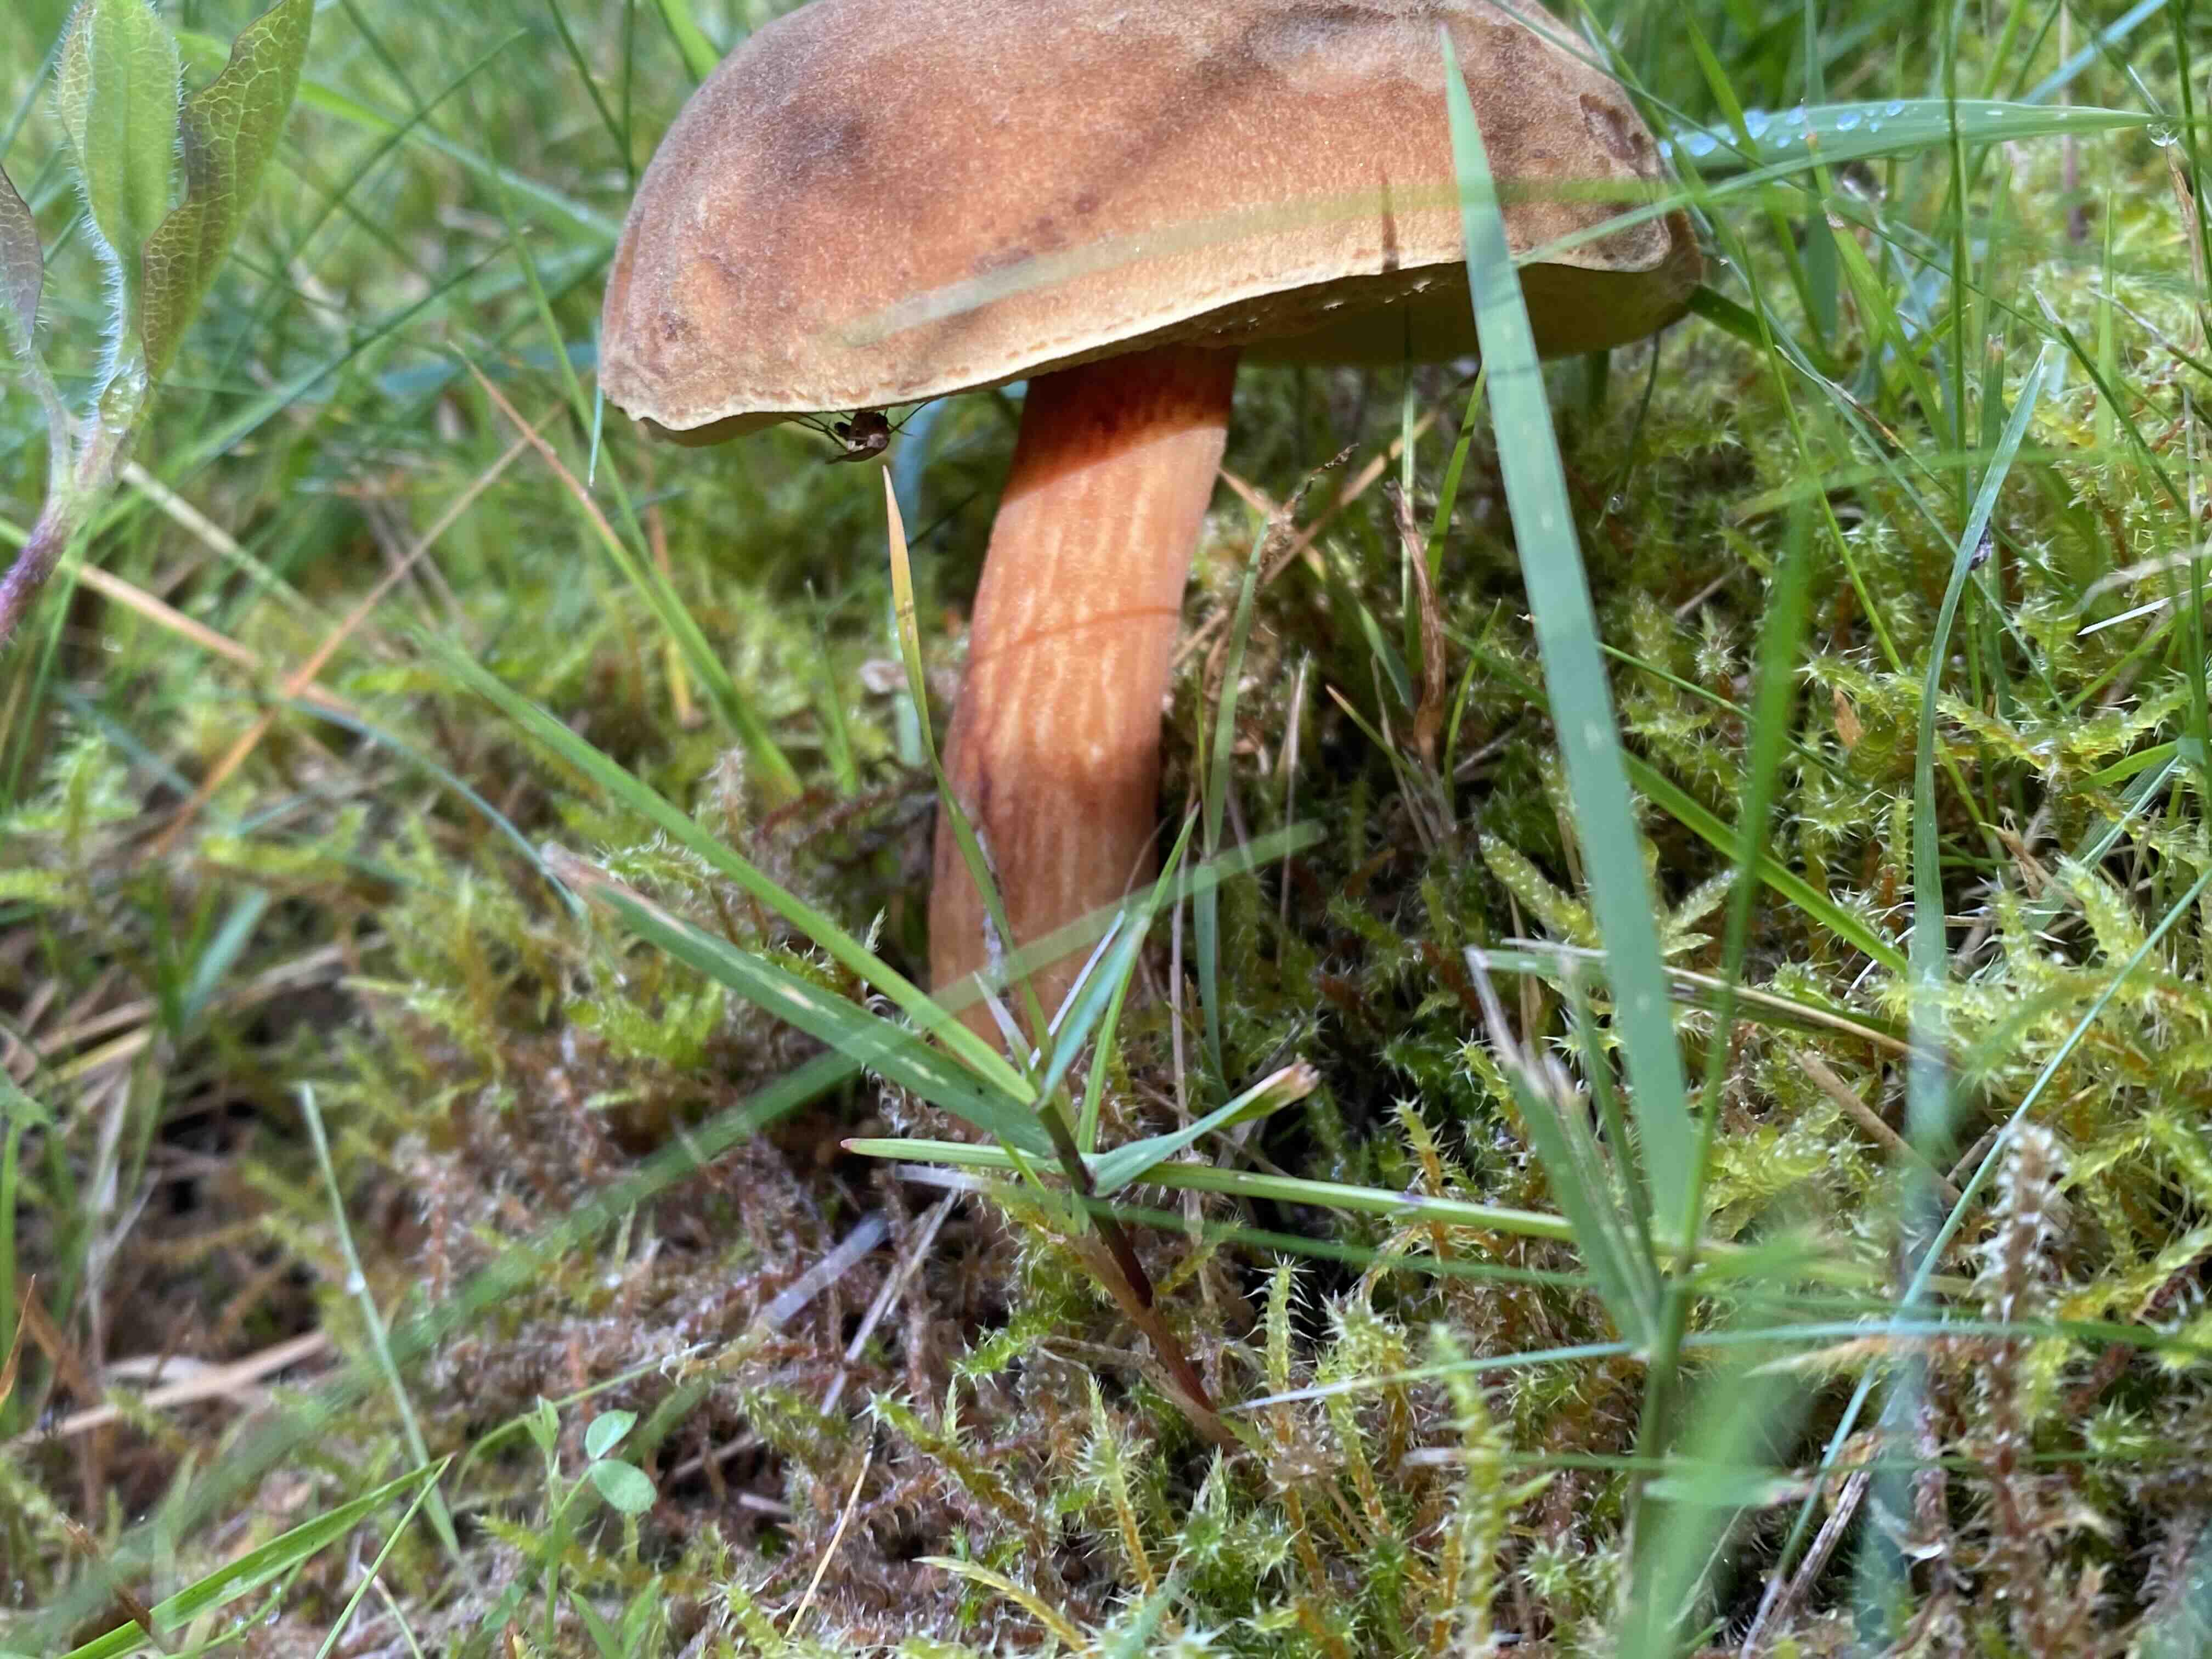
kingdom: Fungi
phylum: Basidiomycota
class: Agaricomycetes
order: Boletales
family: Boletaceae
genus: Xerocomus
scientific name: Xerocomus ferrugineus
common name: vaskeskinds-rørhat
